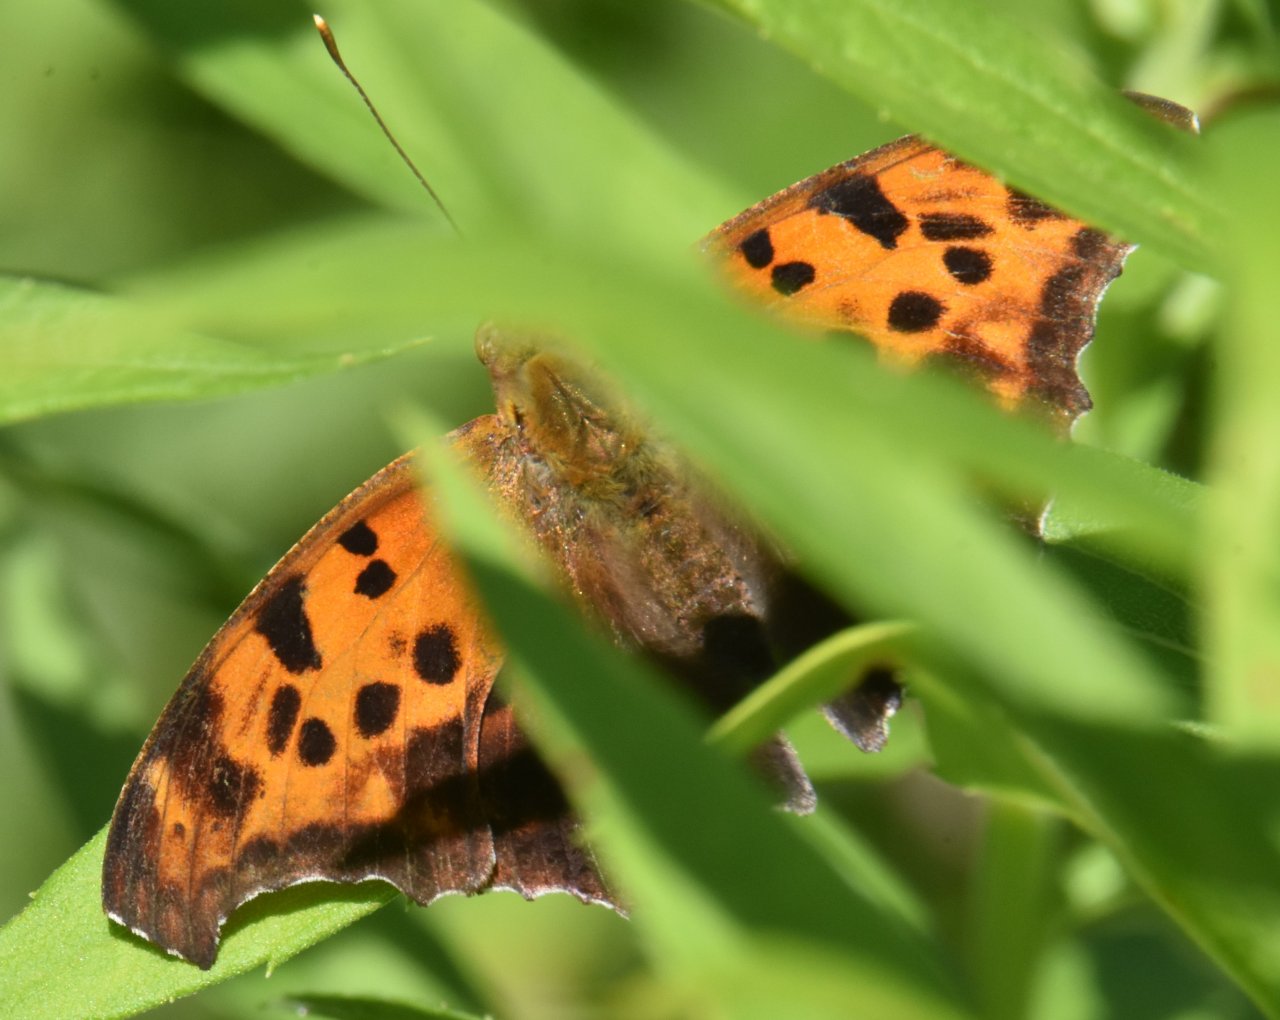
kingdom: Animalia
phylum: Arthropoda
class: Insecta
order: Lepidoptera
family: Nymphalidae
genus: Polygonia
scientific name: Polygonia interrogationis
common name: Question Mark
